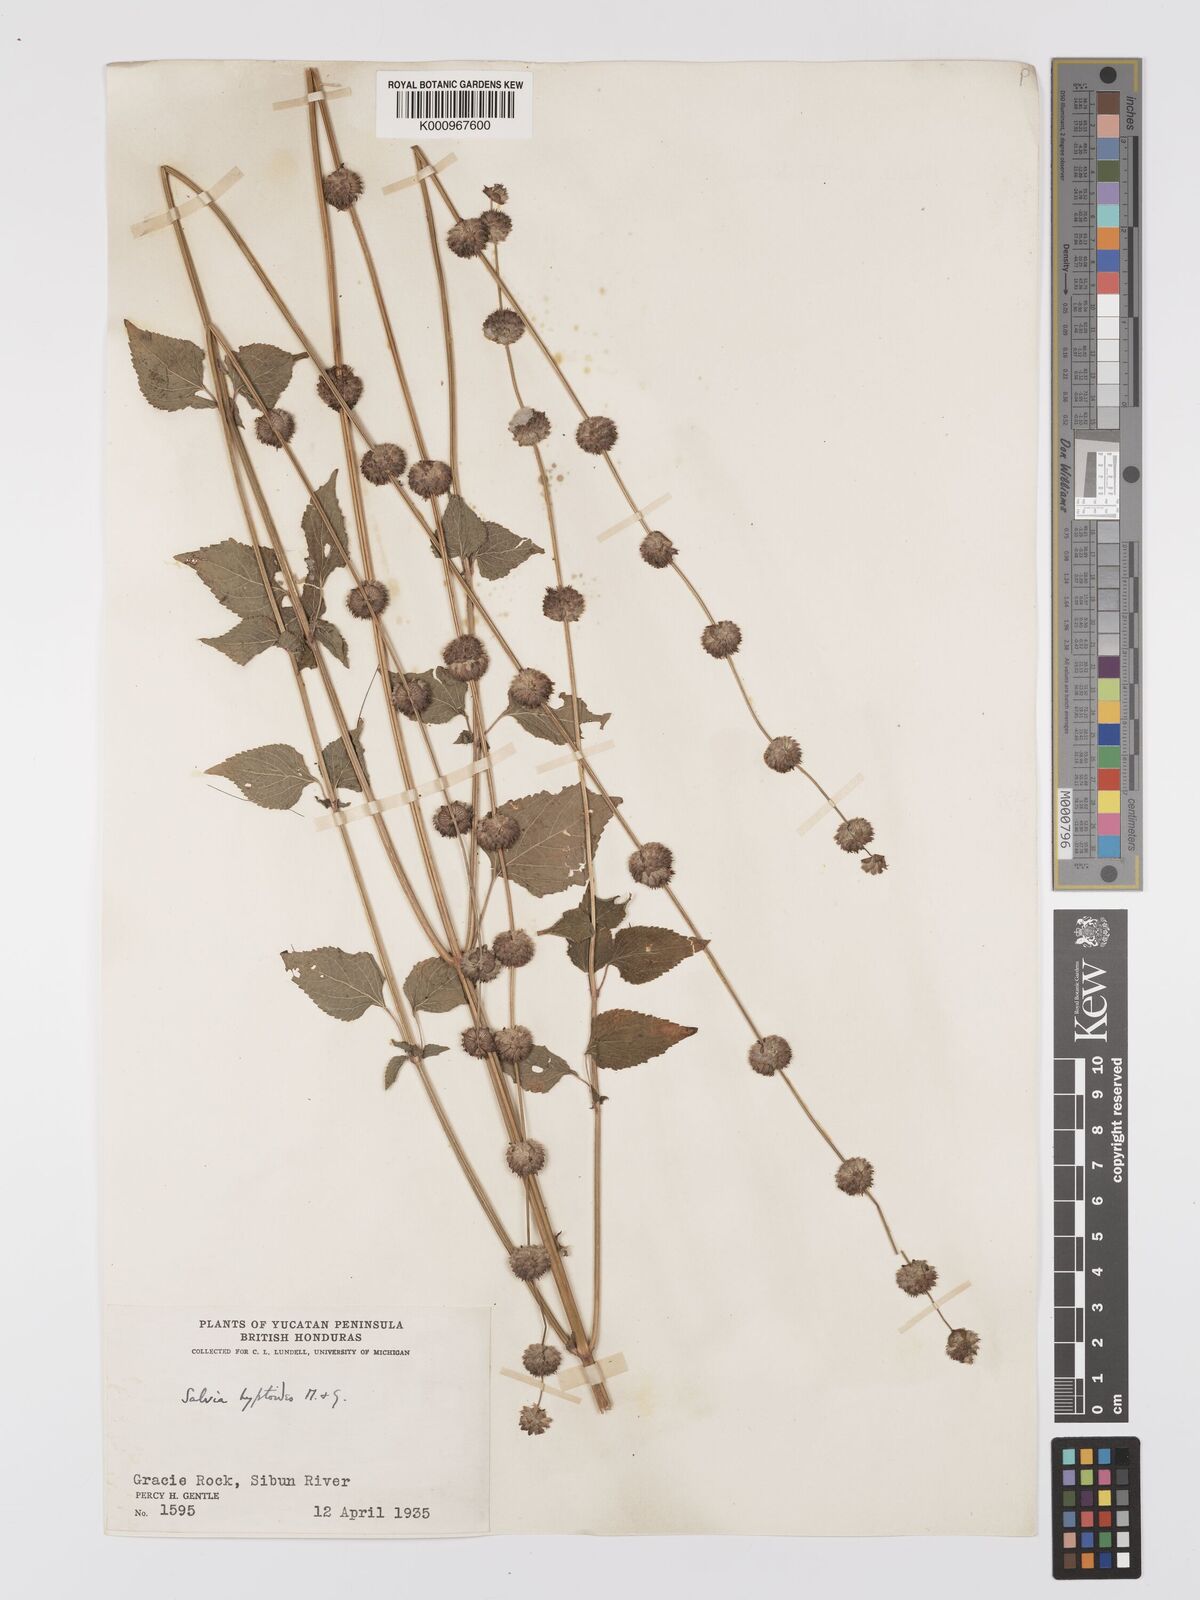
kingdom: Plantae
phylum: Tracheophyta
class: Magnoliopsida
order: Lamiales
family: Lamiaceae
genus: Salvia
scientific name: Salvia lasiocephala
